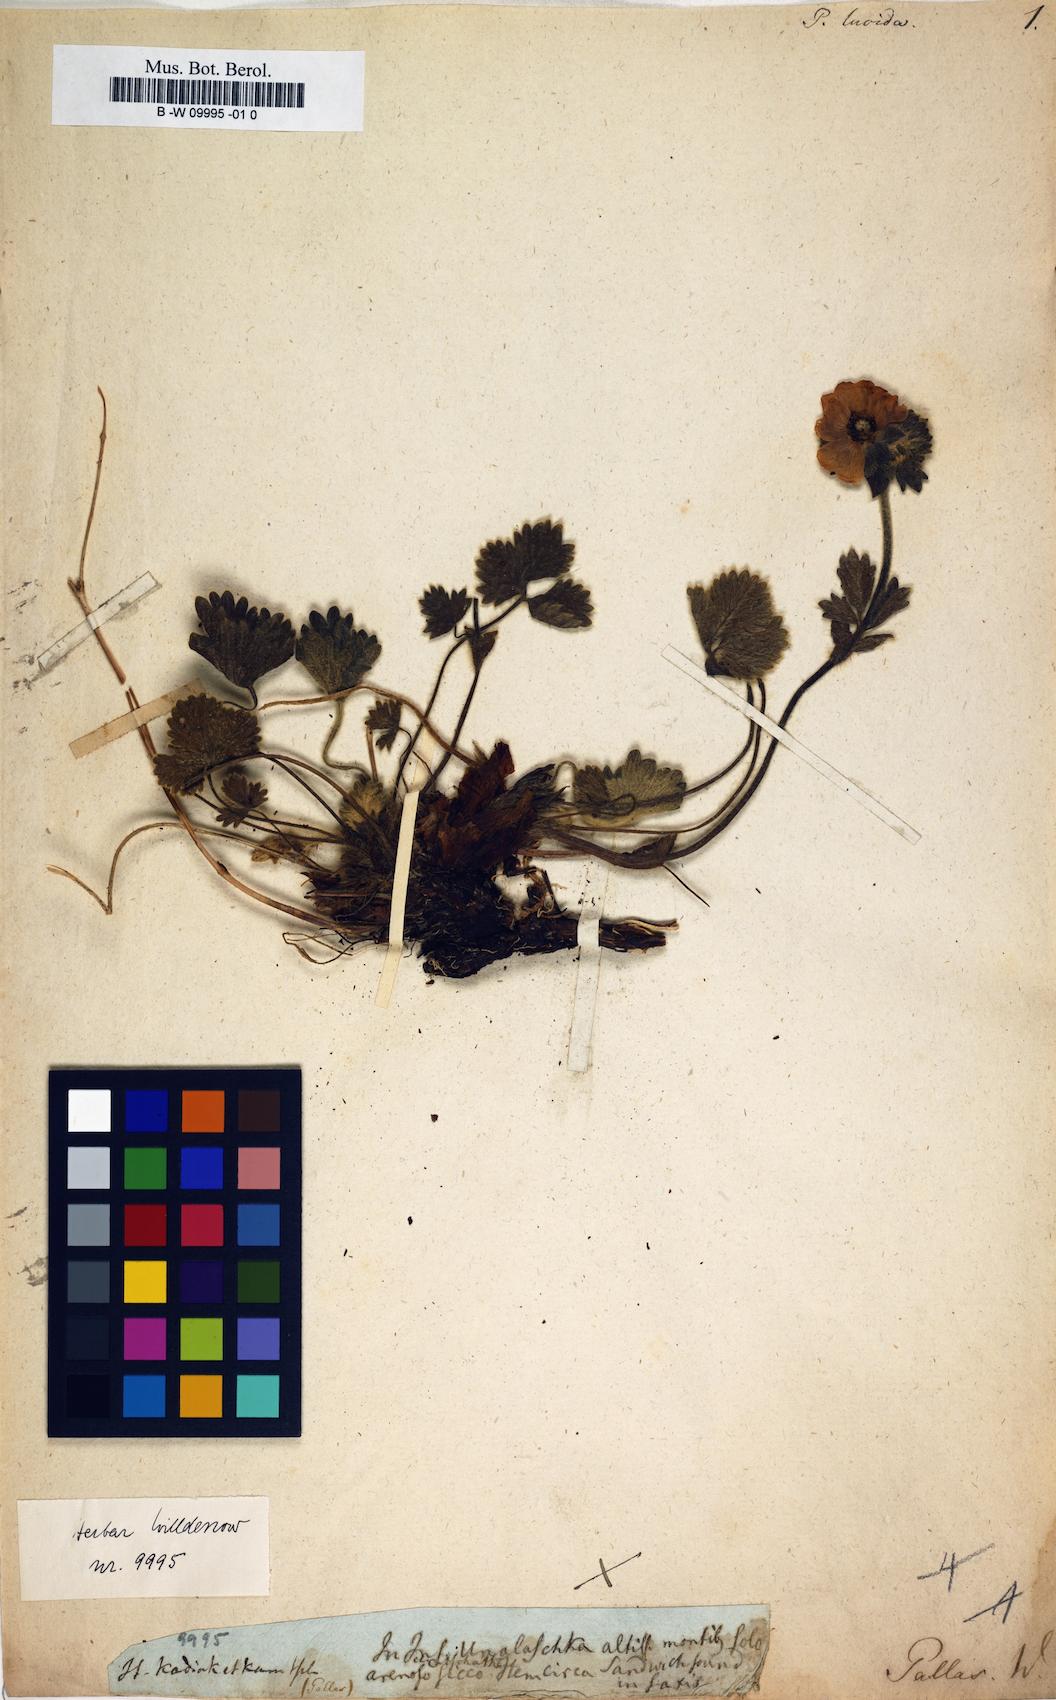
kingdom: Plantae
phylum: Tracheophyta
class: Magnoliopsida
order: Rosales
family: Rosaceae
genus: Potentilla
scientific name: Potentilla crantzii
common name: Alpine cinquefoil
